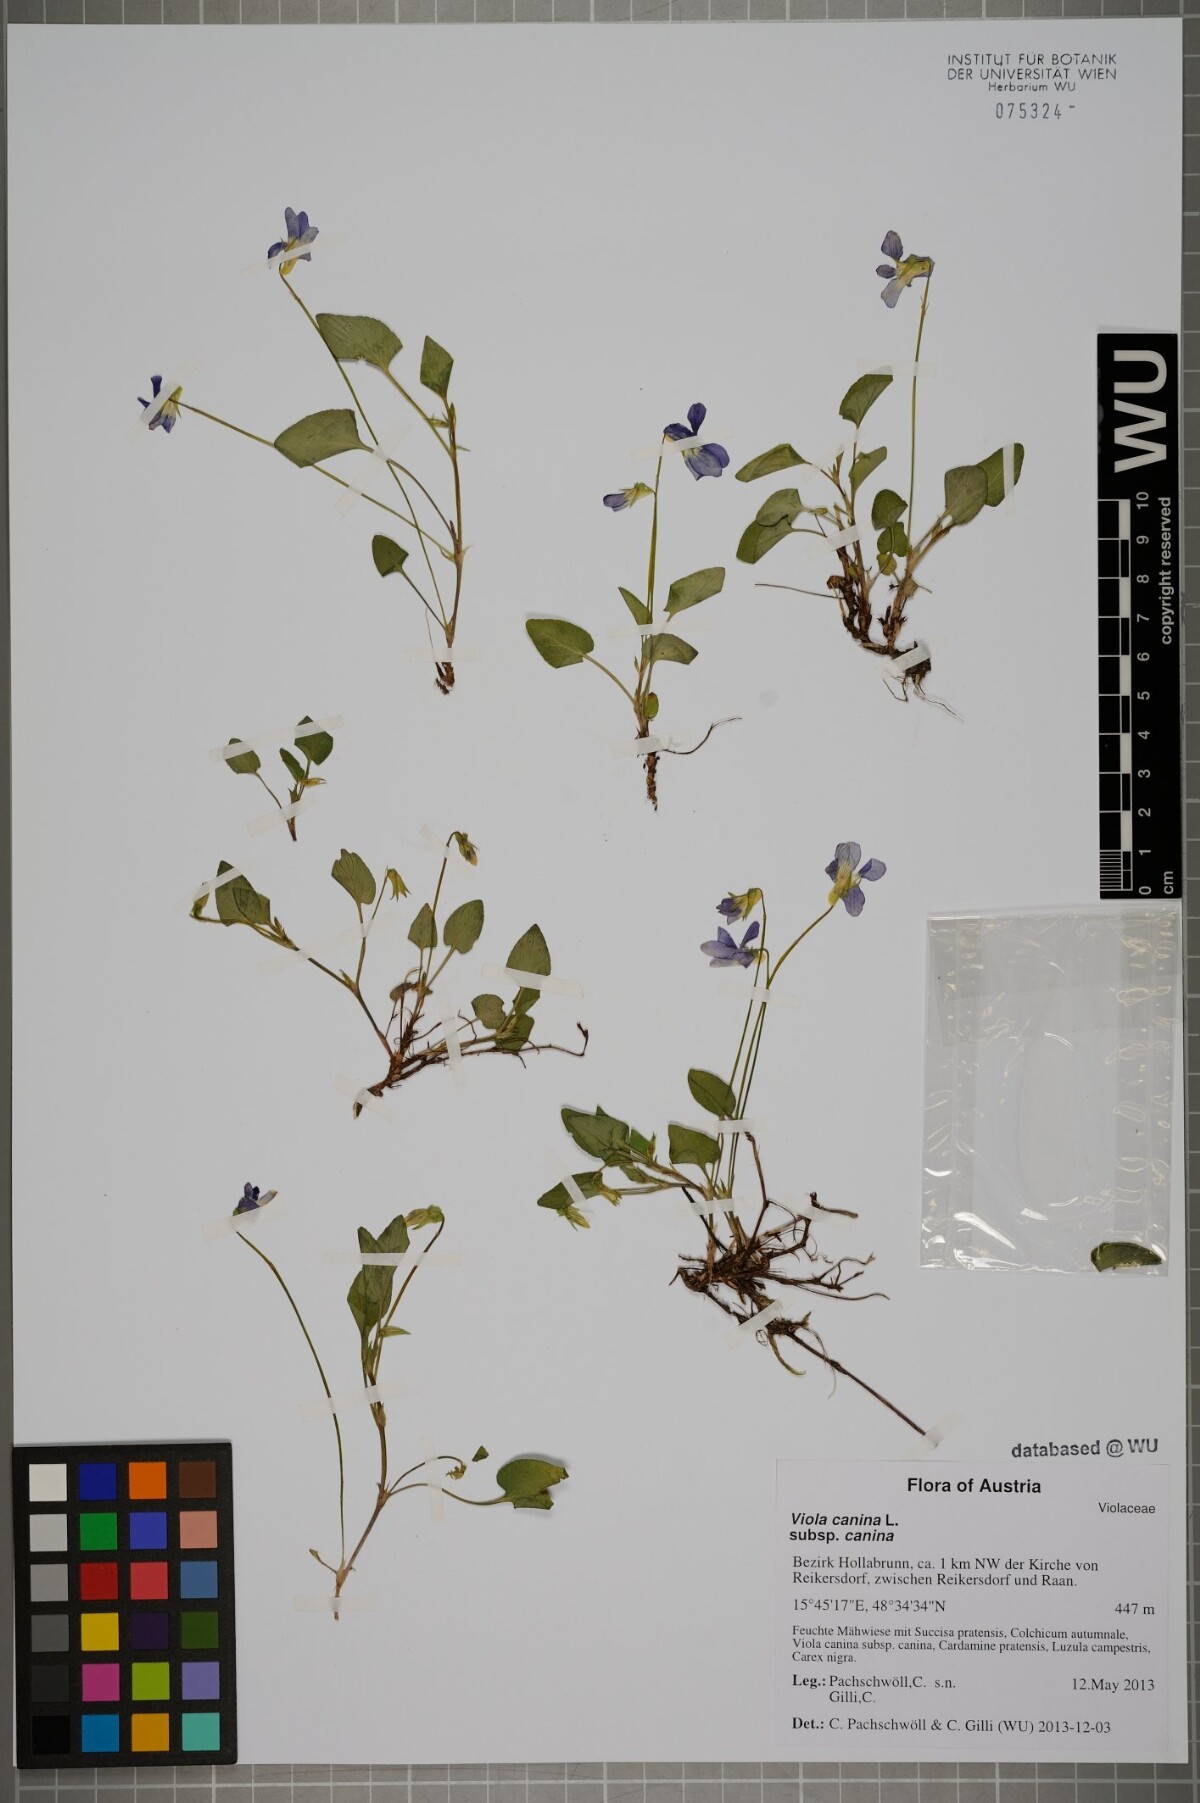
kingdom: Plantae
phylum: Tracheophyta
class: Magnoliopsida
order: Malpighiales
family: Violaceae
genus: Viola
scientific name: Viola canina
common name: Heath dog-violet
